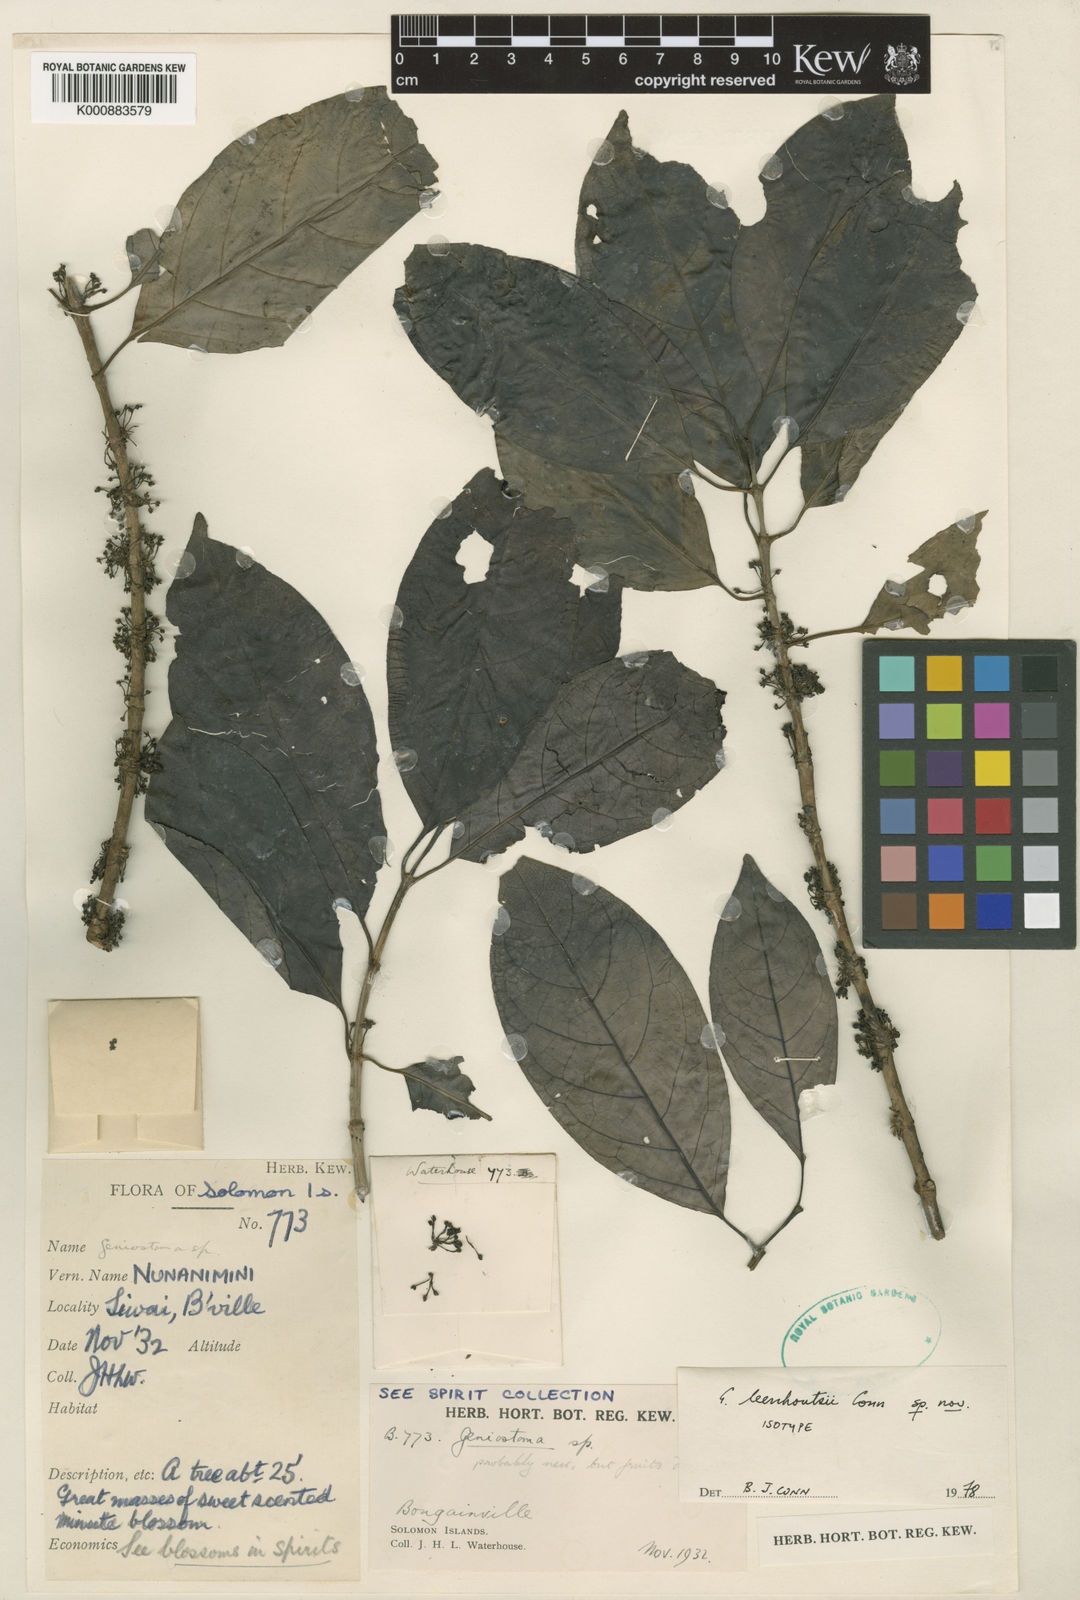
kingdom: Plantae
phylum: Tracheophyta
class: Magnoliopsida
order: Gentianales
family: Loganiaceae
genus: Geniostoma
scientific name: Geniostoma leenhoutsii
